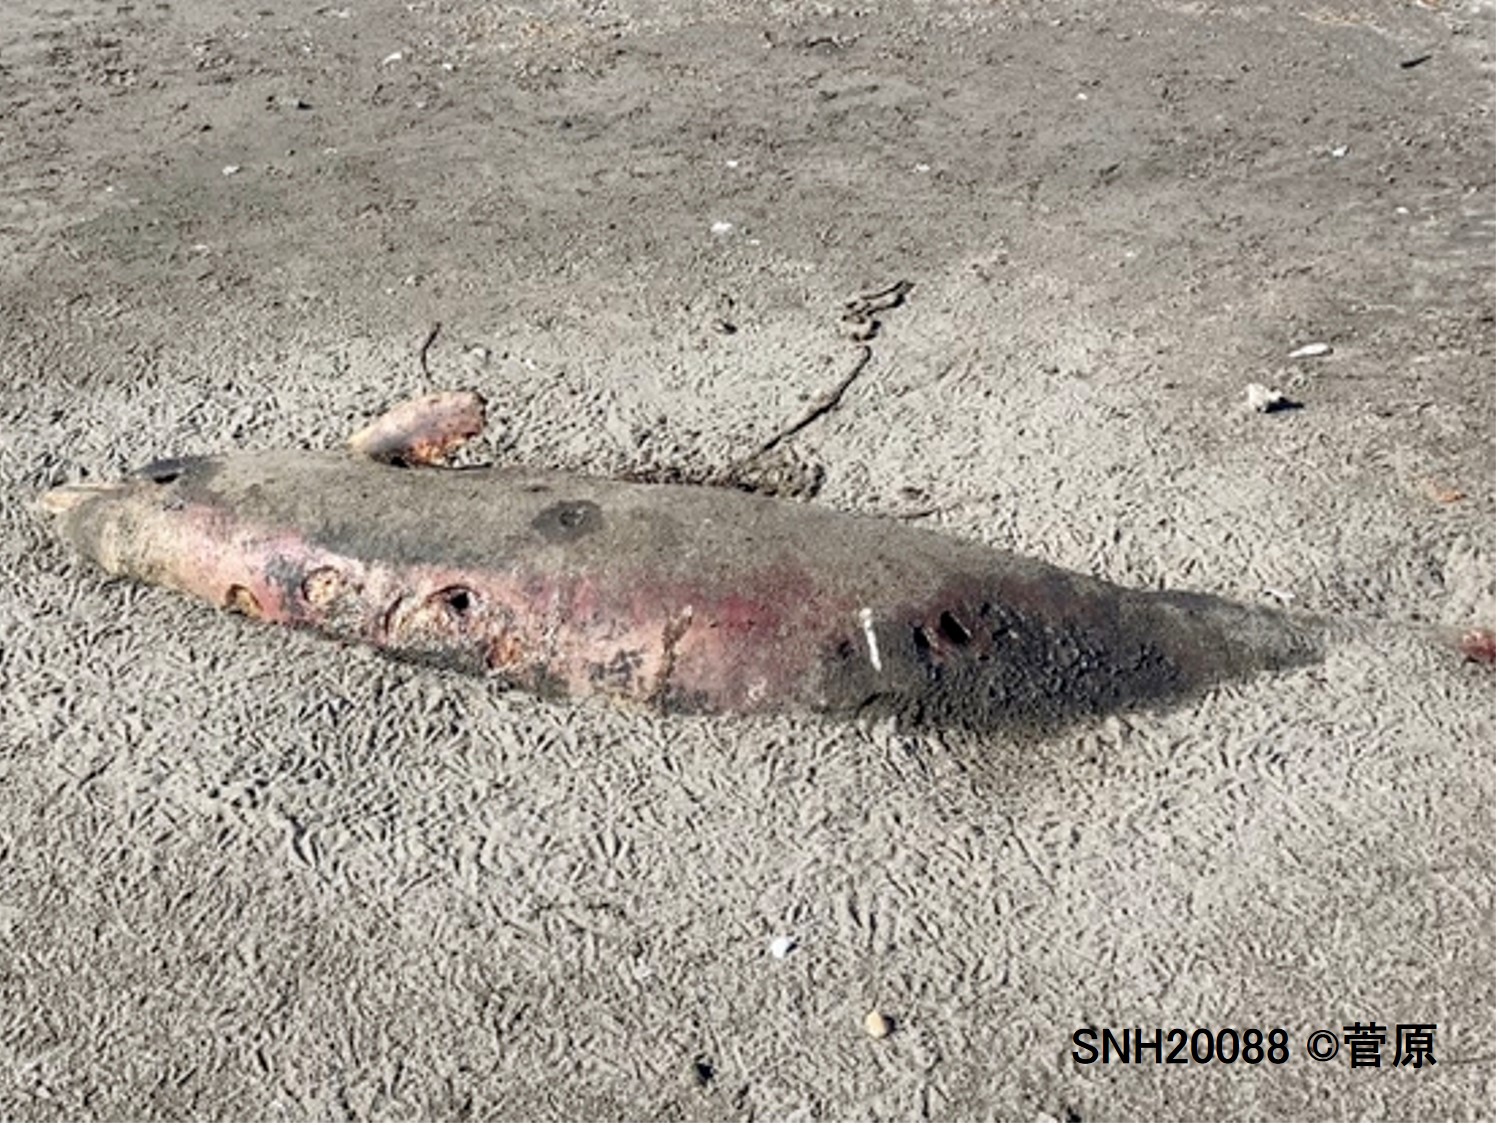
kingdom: Animalia
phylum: Chordata
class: Mammalia
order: Cetacea
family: Delphinidae
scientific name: Delphinidae
